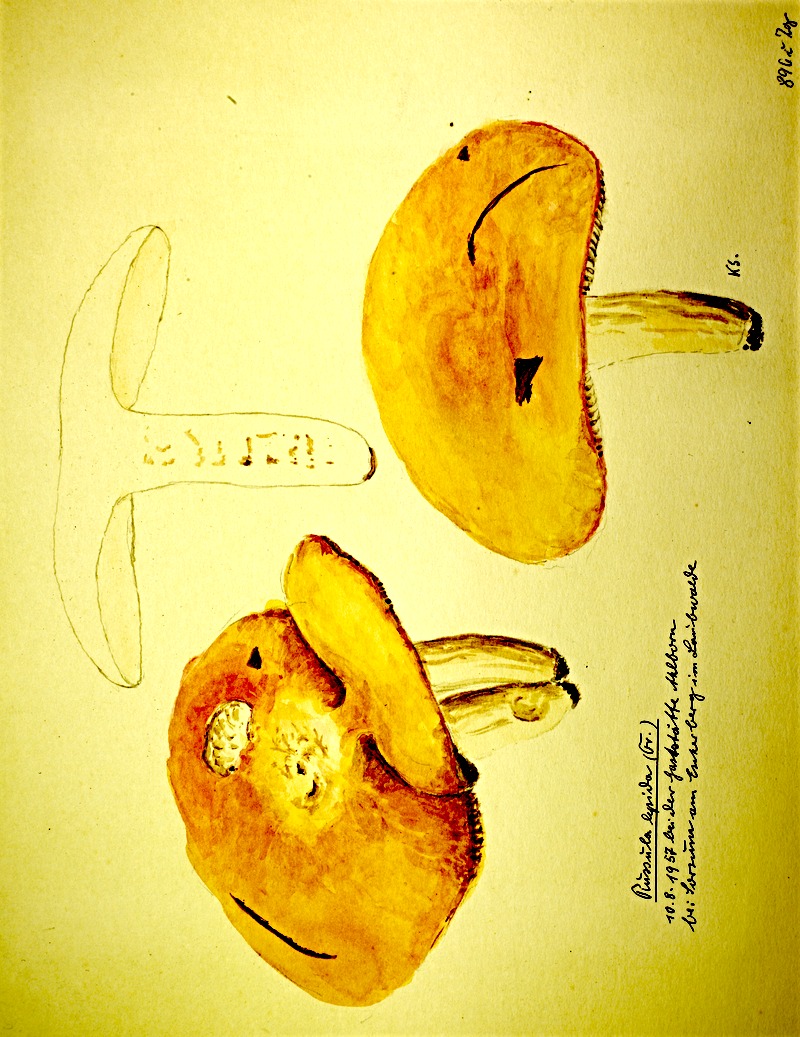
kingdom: Fungi
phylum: Basidiomycota
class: Agaricomycetes
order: Russulales
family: Russulaceae
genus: Russula
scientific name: Russula rosea
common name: Rosy brittlegill
